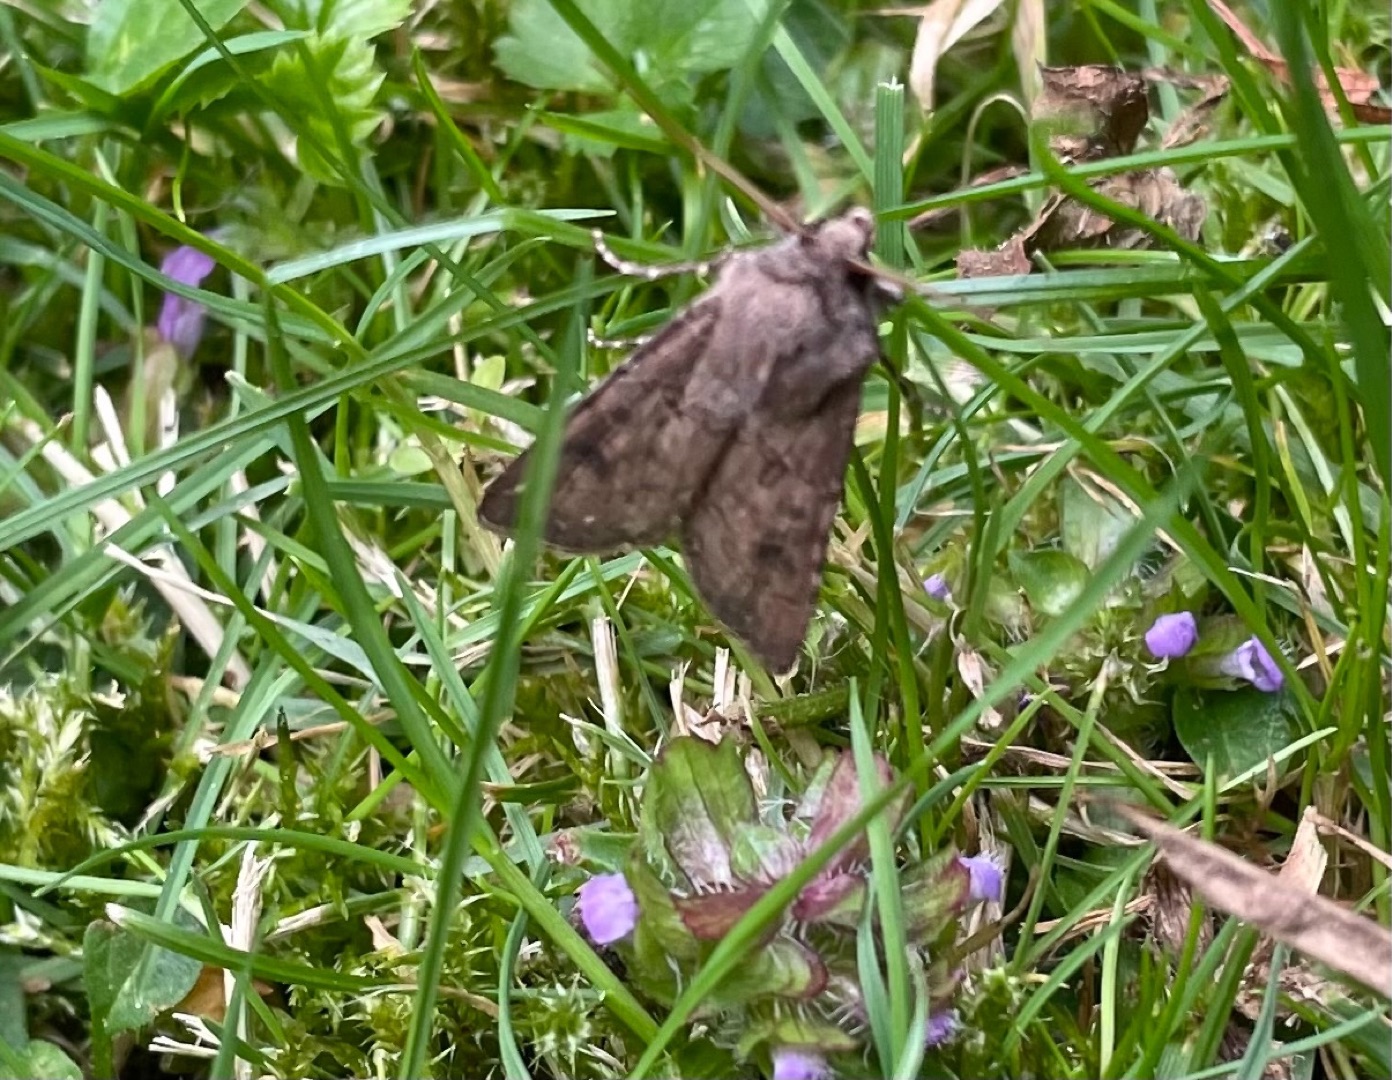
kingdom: Animalia
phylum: Arthropoda
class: Insecta
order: Lepidoptera
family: Noctuidae
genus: Agrotis
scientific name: Agrotis segetum
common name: Agerugle
